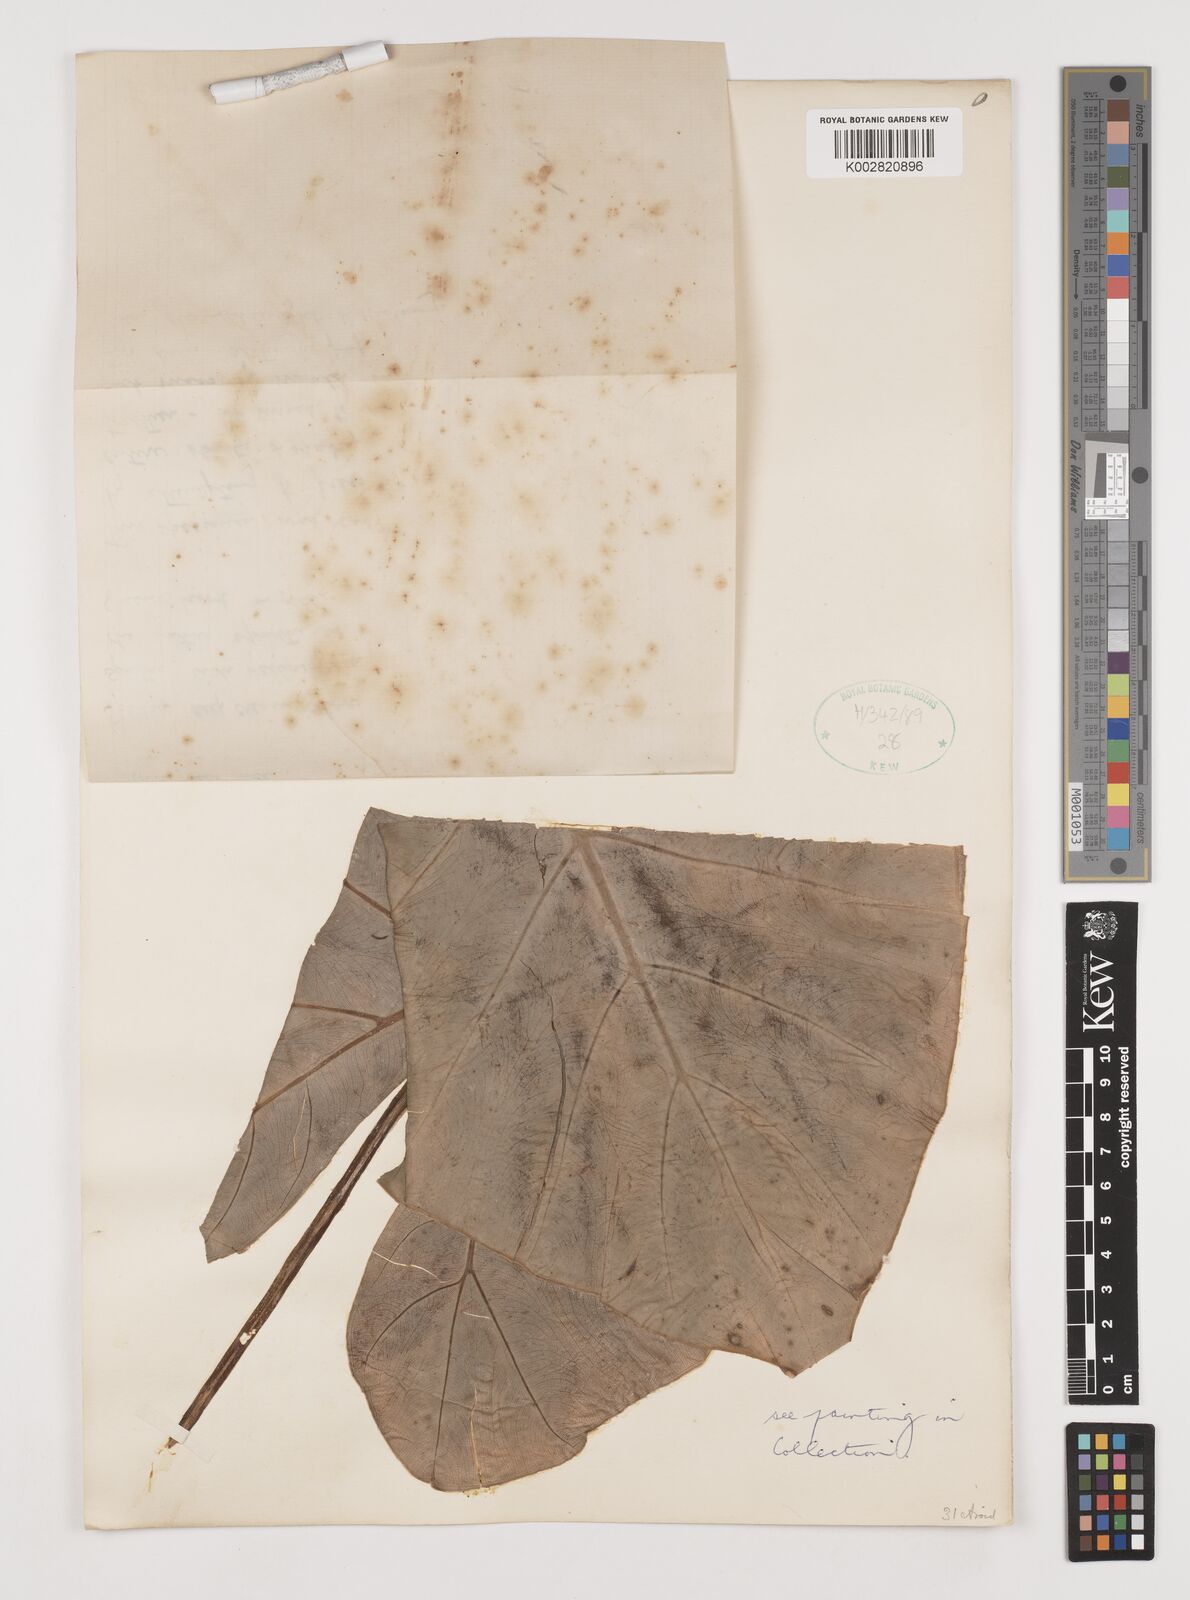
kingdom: Plantae
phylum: Tracheophyta
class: Liliopsida
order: Alismatales
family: Araceae
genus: Alocasia
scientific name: Alocasia
